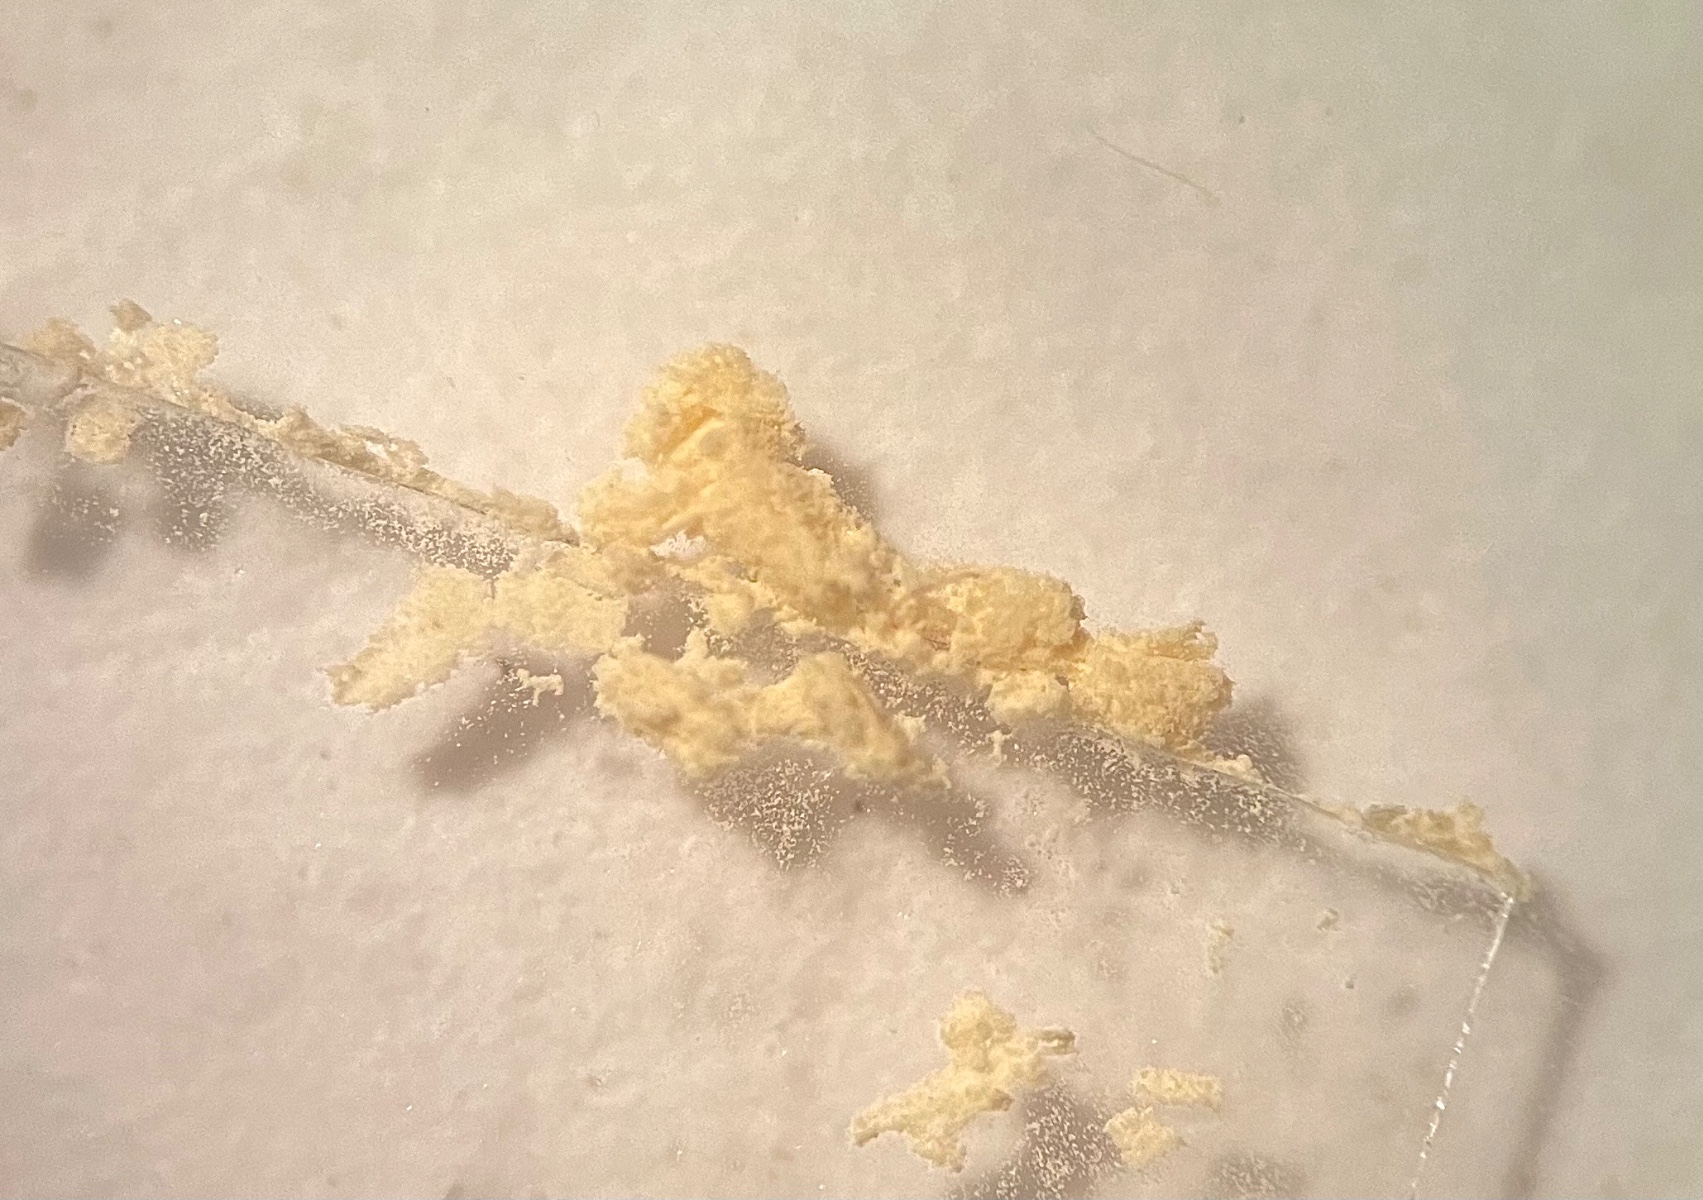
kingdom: Fungi
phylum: Basidiomycota
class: Agaricomycetes
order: Russulales
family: Russulaceae
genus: Russula
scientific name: Russula sanguinea
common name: blodrød skørhat
